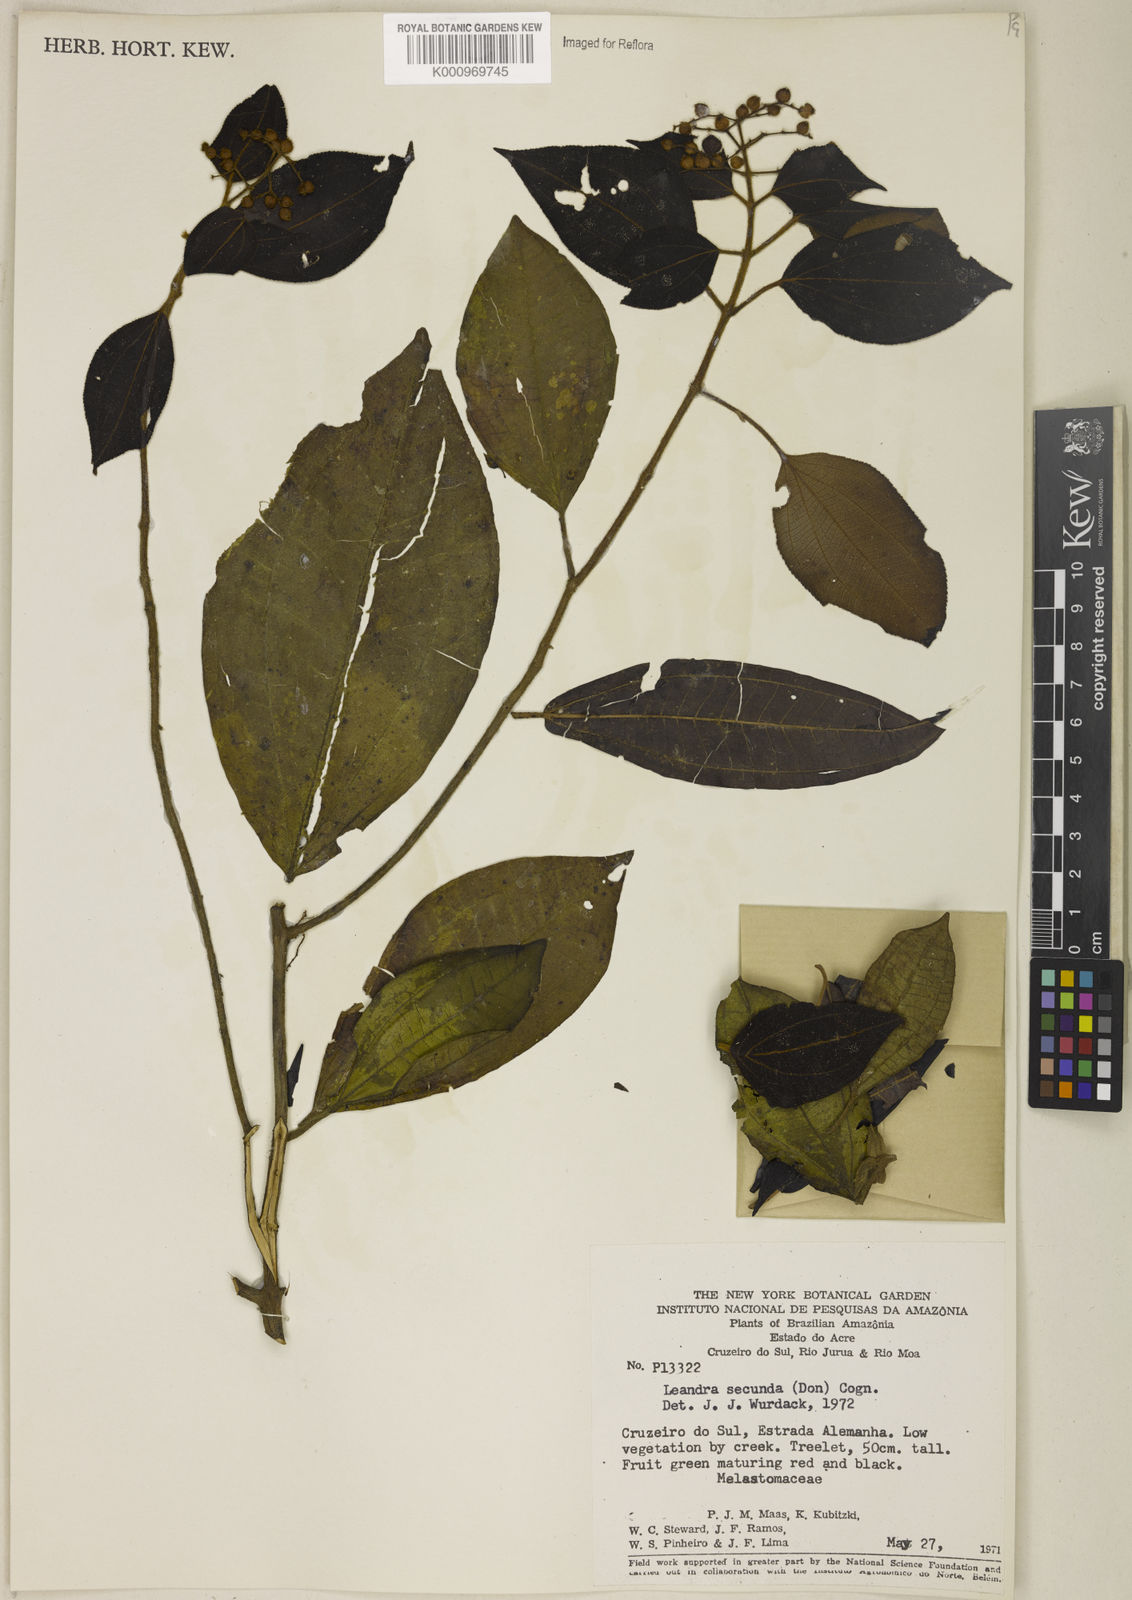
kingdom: Plantae
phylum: Tracheophyta
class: Magnoliopsida
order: Myrtales
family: Melastomataceae
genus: Miconia
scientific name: Miconia neosecunda
